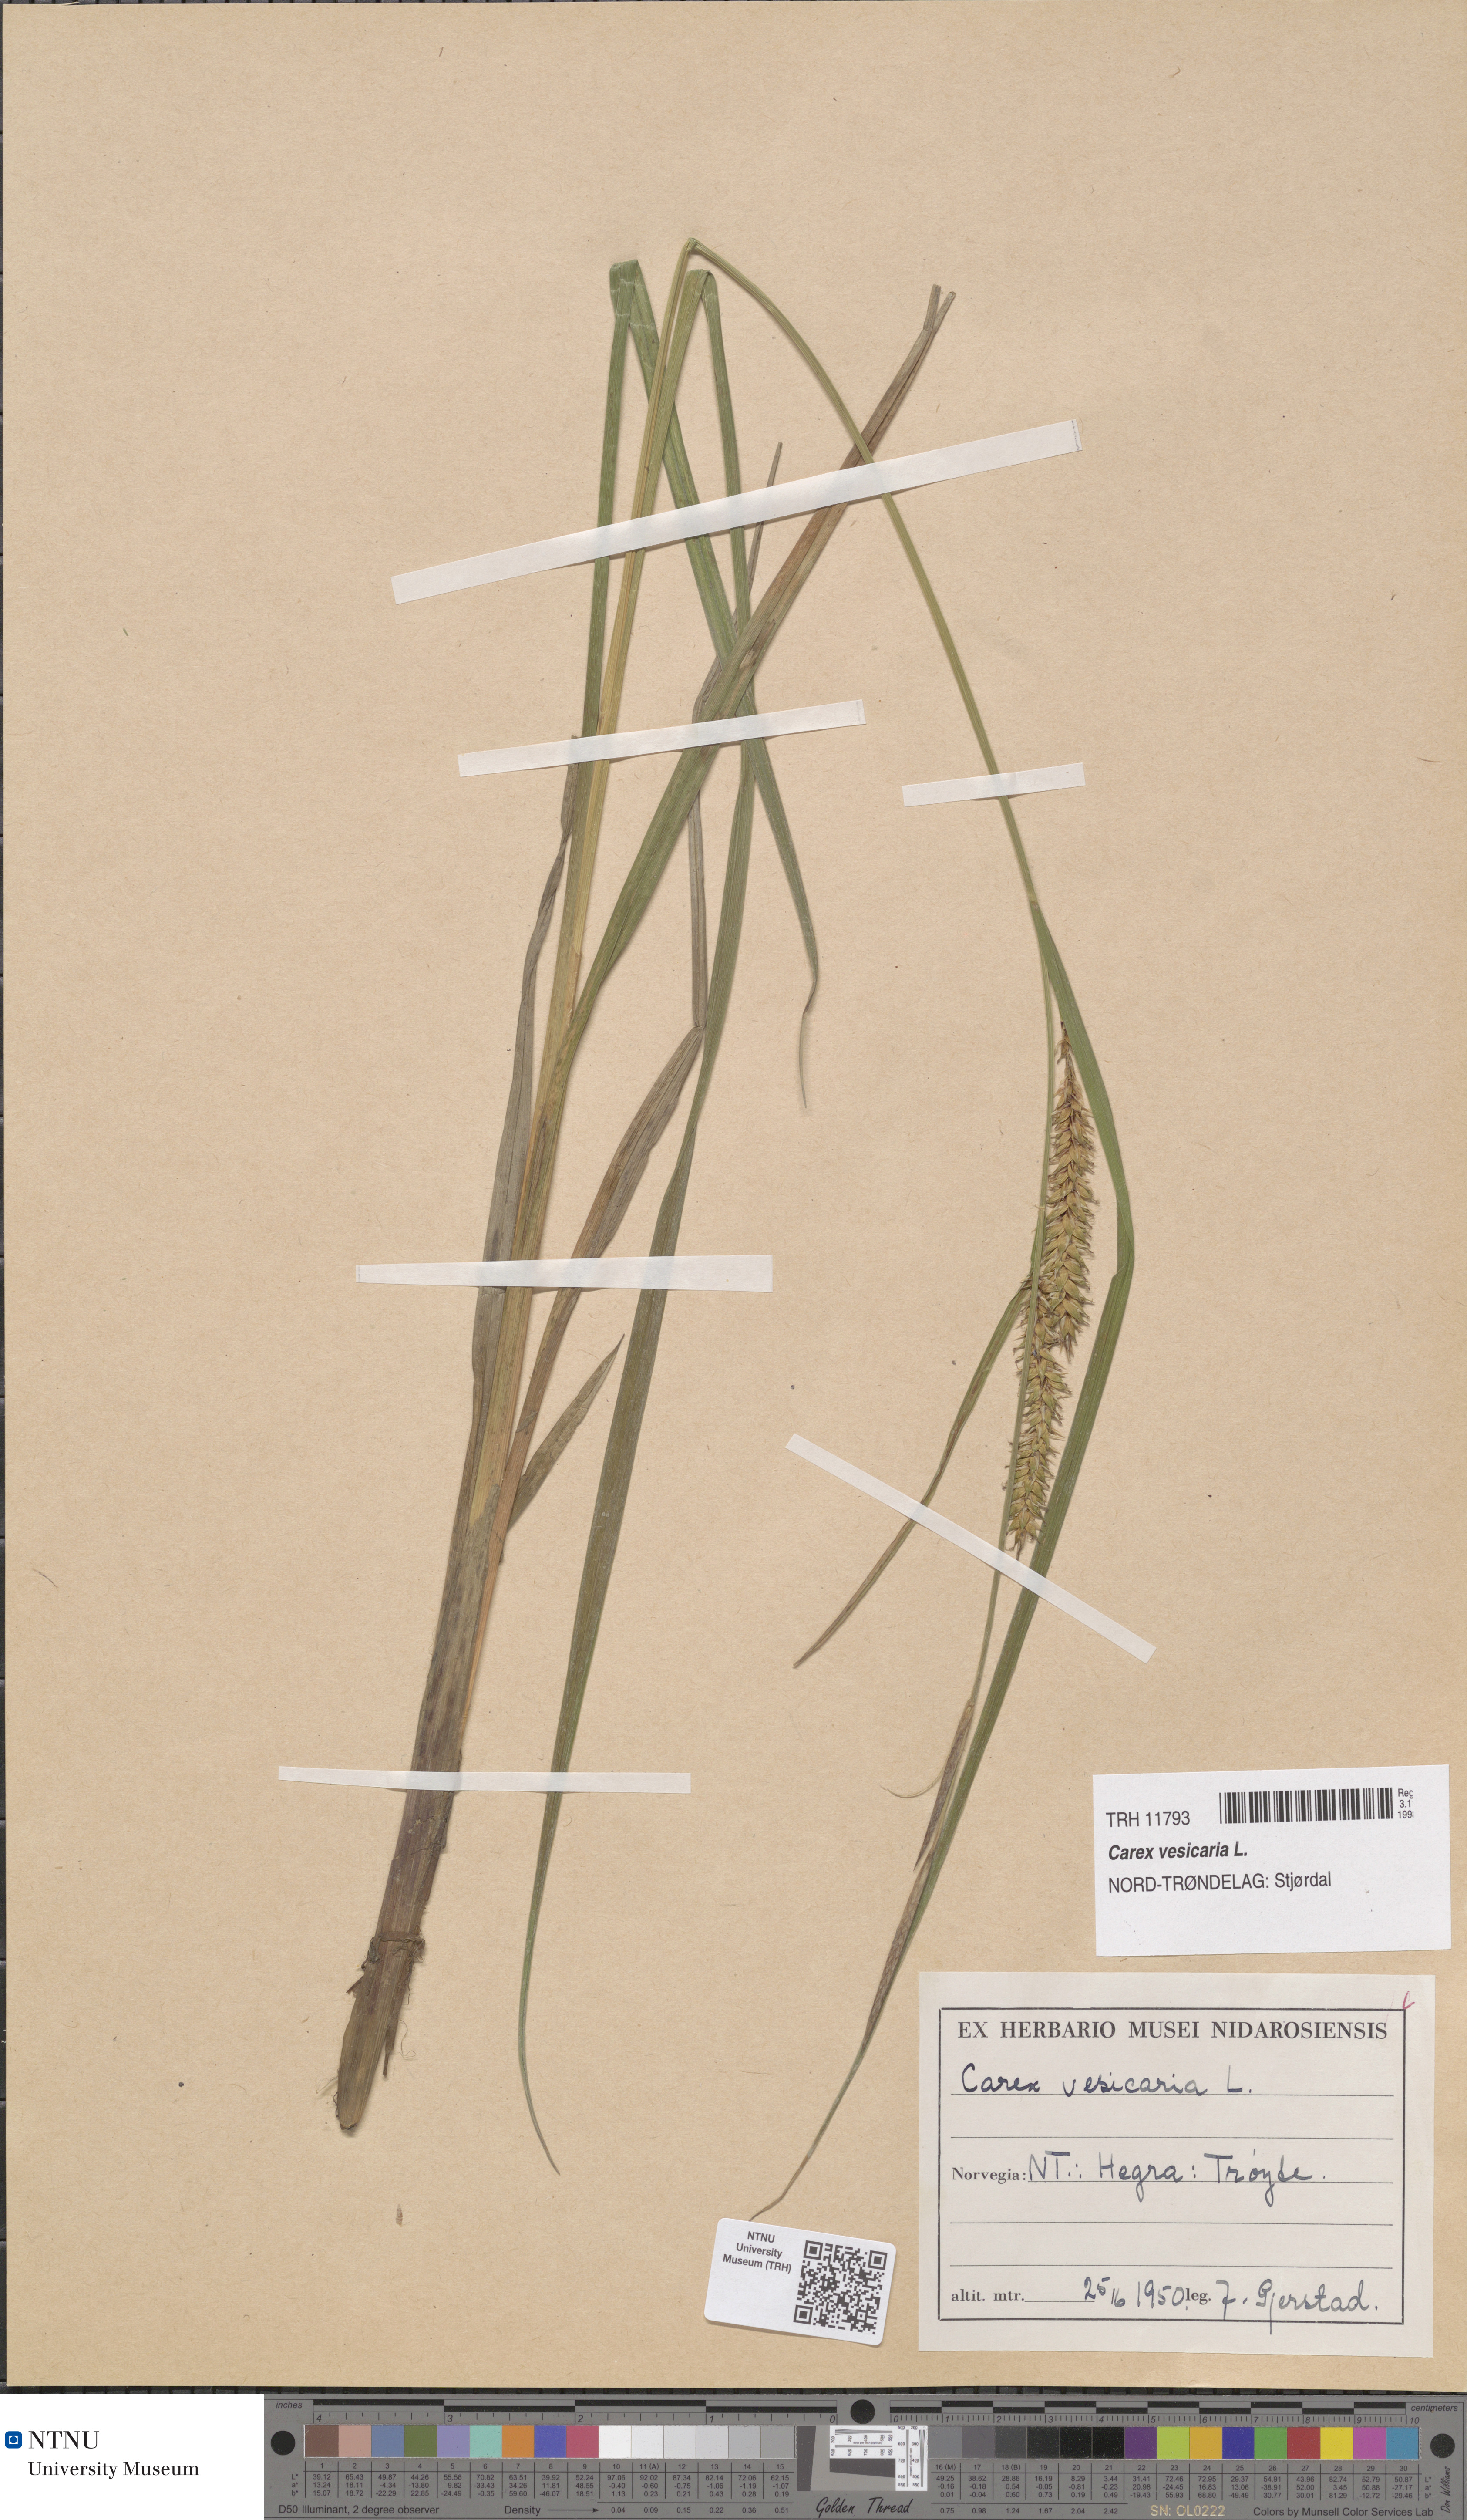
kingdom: Plantae
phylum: Tracheophyta
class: Liliopsida
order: Poales
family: Cyperaceae
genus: Carex
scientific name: Carex vesicaria
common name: Bladder-sedge
